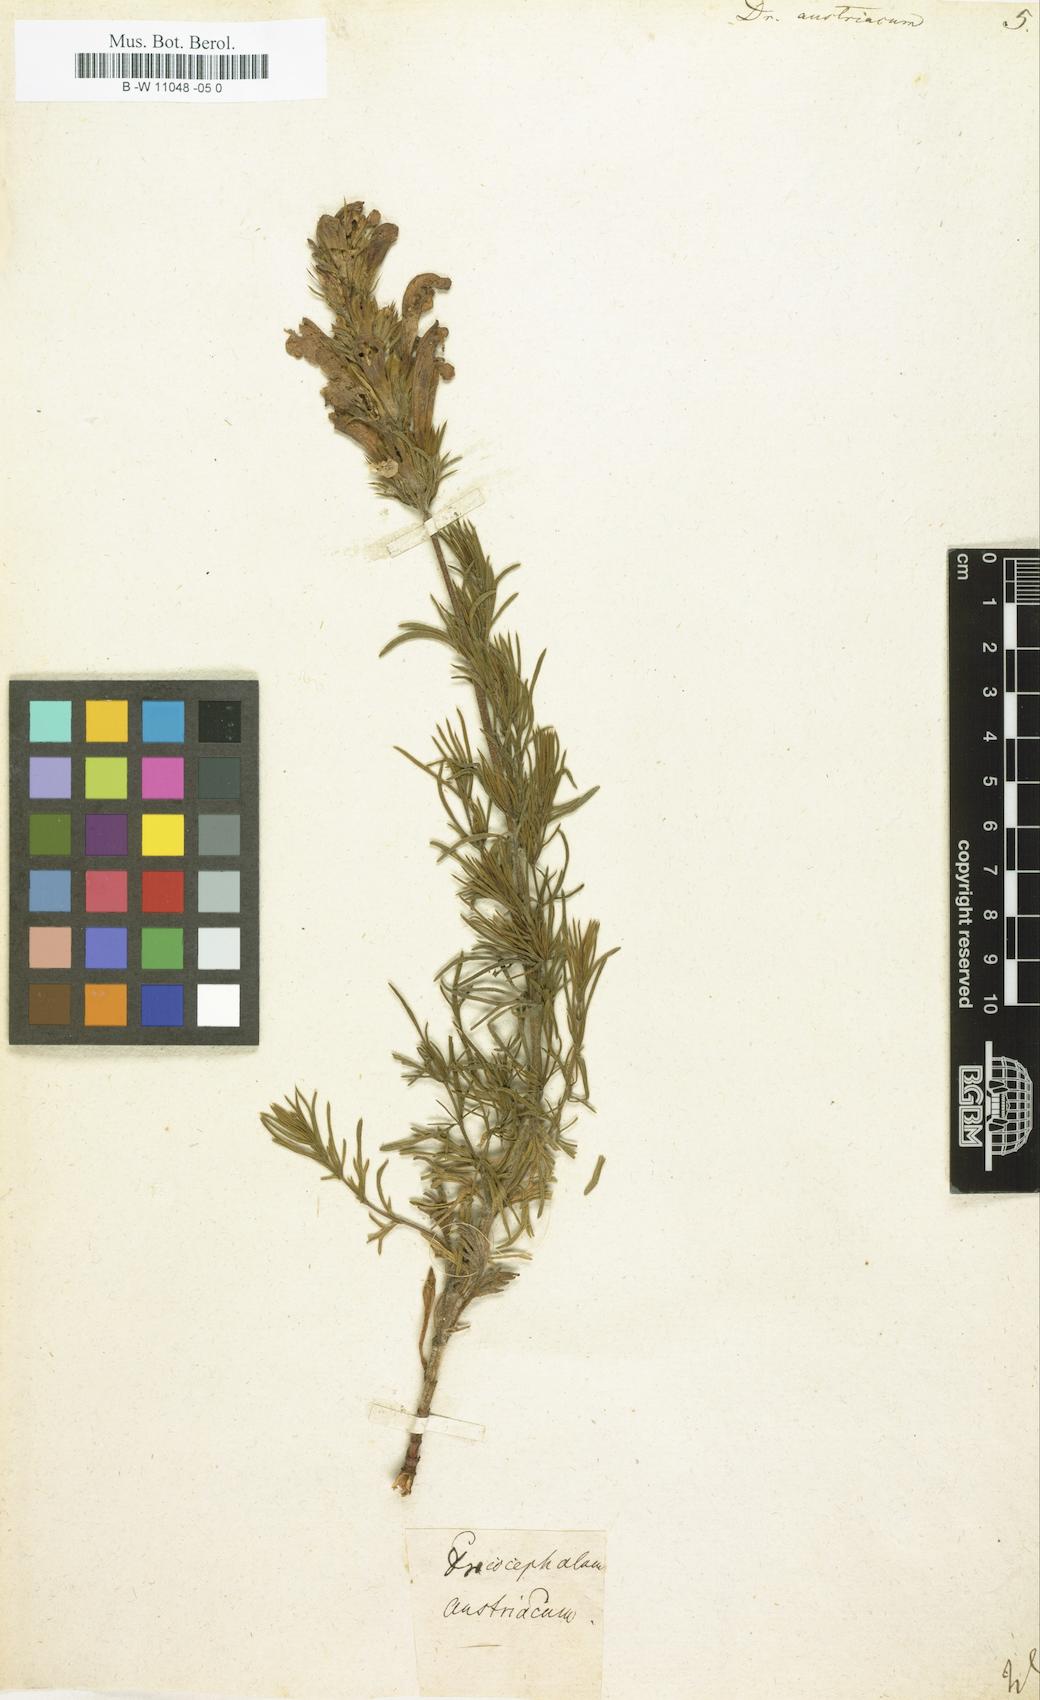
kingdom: Plantae
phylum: Tracheophyta
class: Magnoliopsida
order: Lamiales
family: Lamiaceae
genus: Dracocephalum
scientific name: Dracocephalum austriacum
